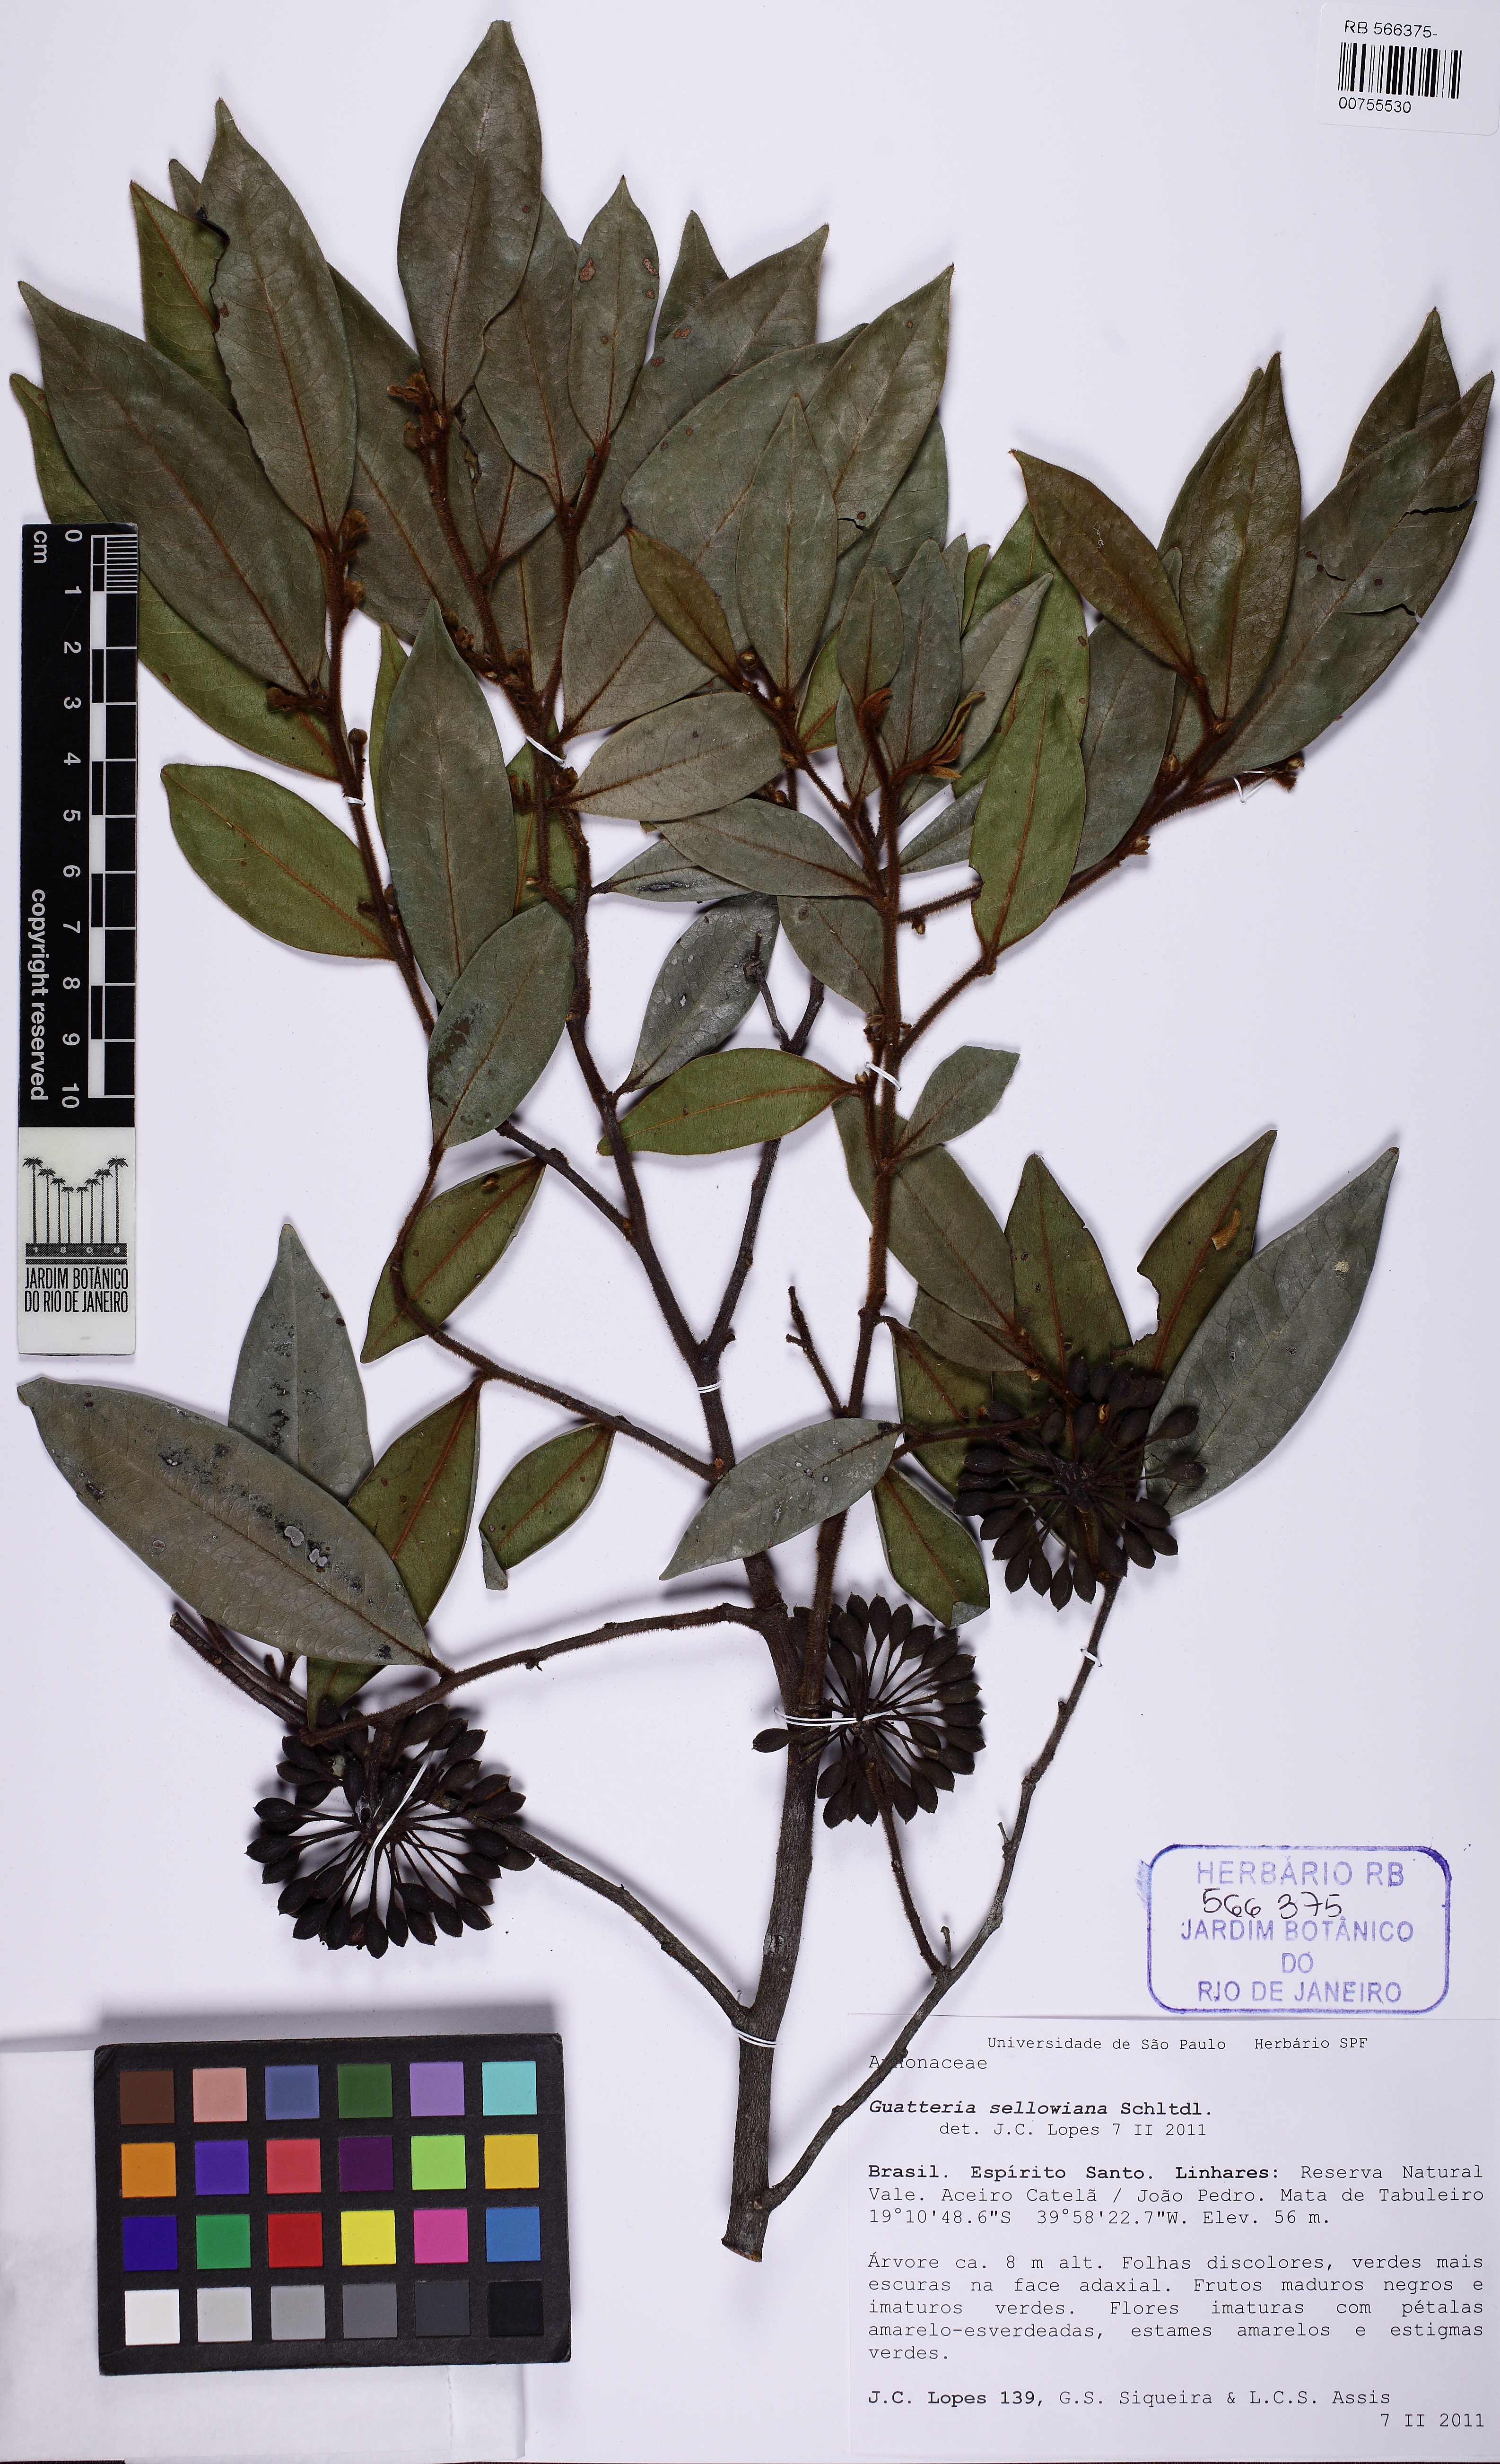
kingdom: Plantae
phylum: Tracheophyta
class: Magnoliopsida
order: Magnoliales
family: Annonaceae
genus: Guatteria
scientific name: Guatteria sellowiana
